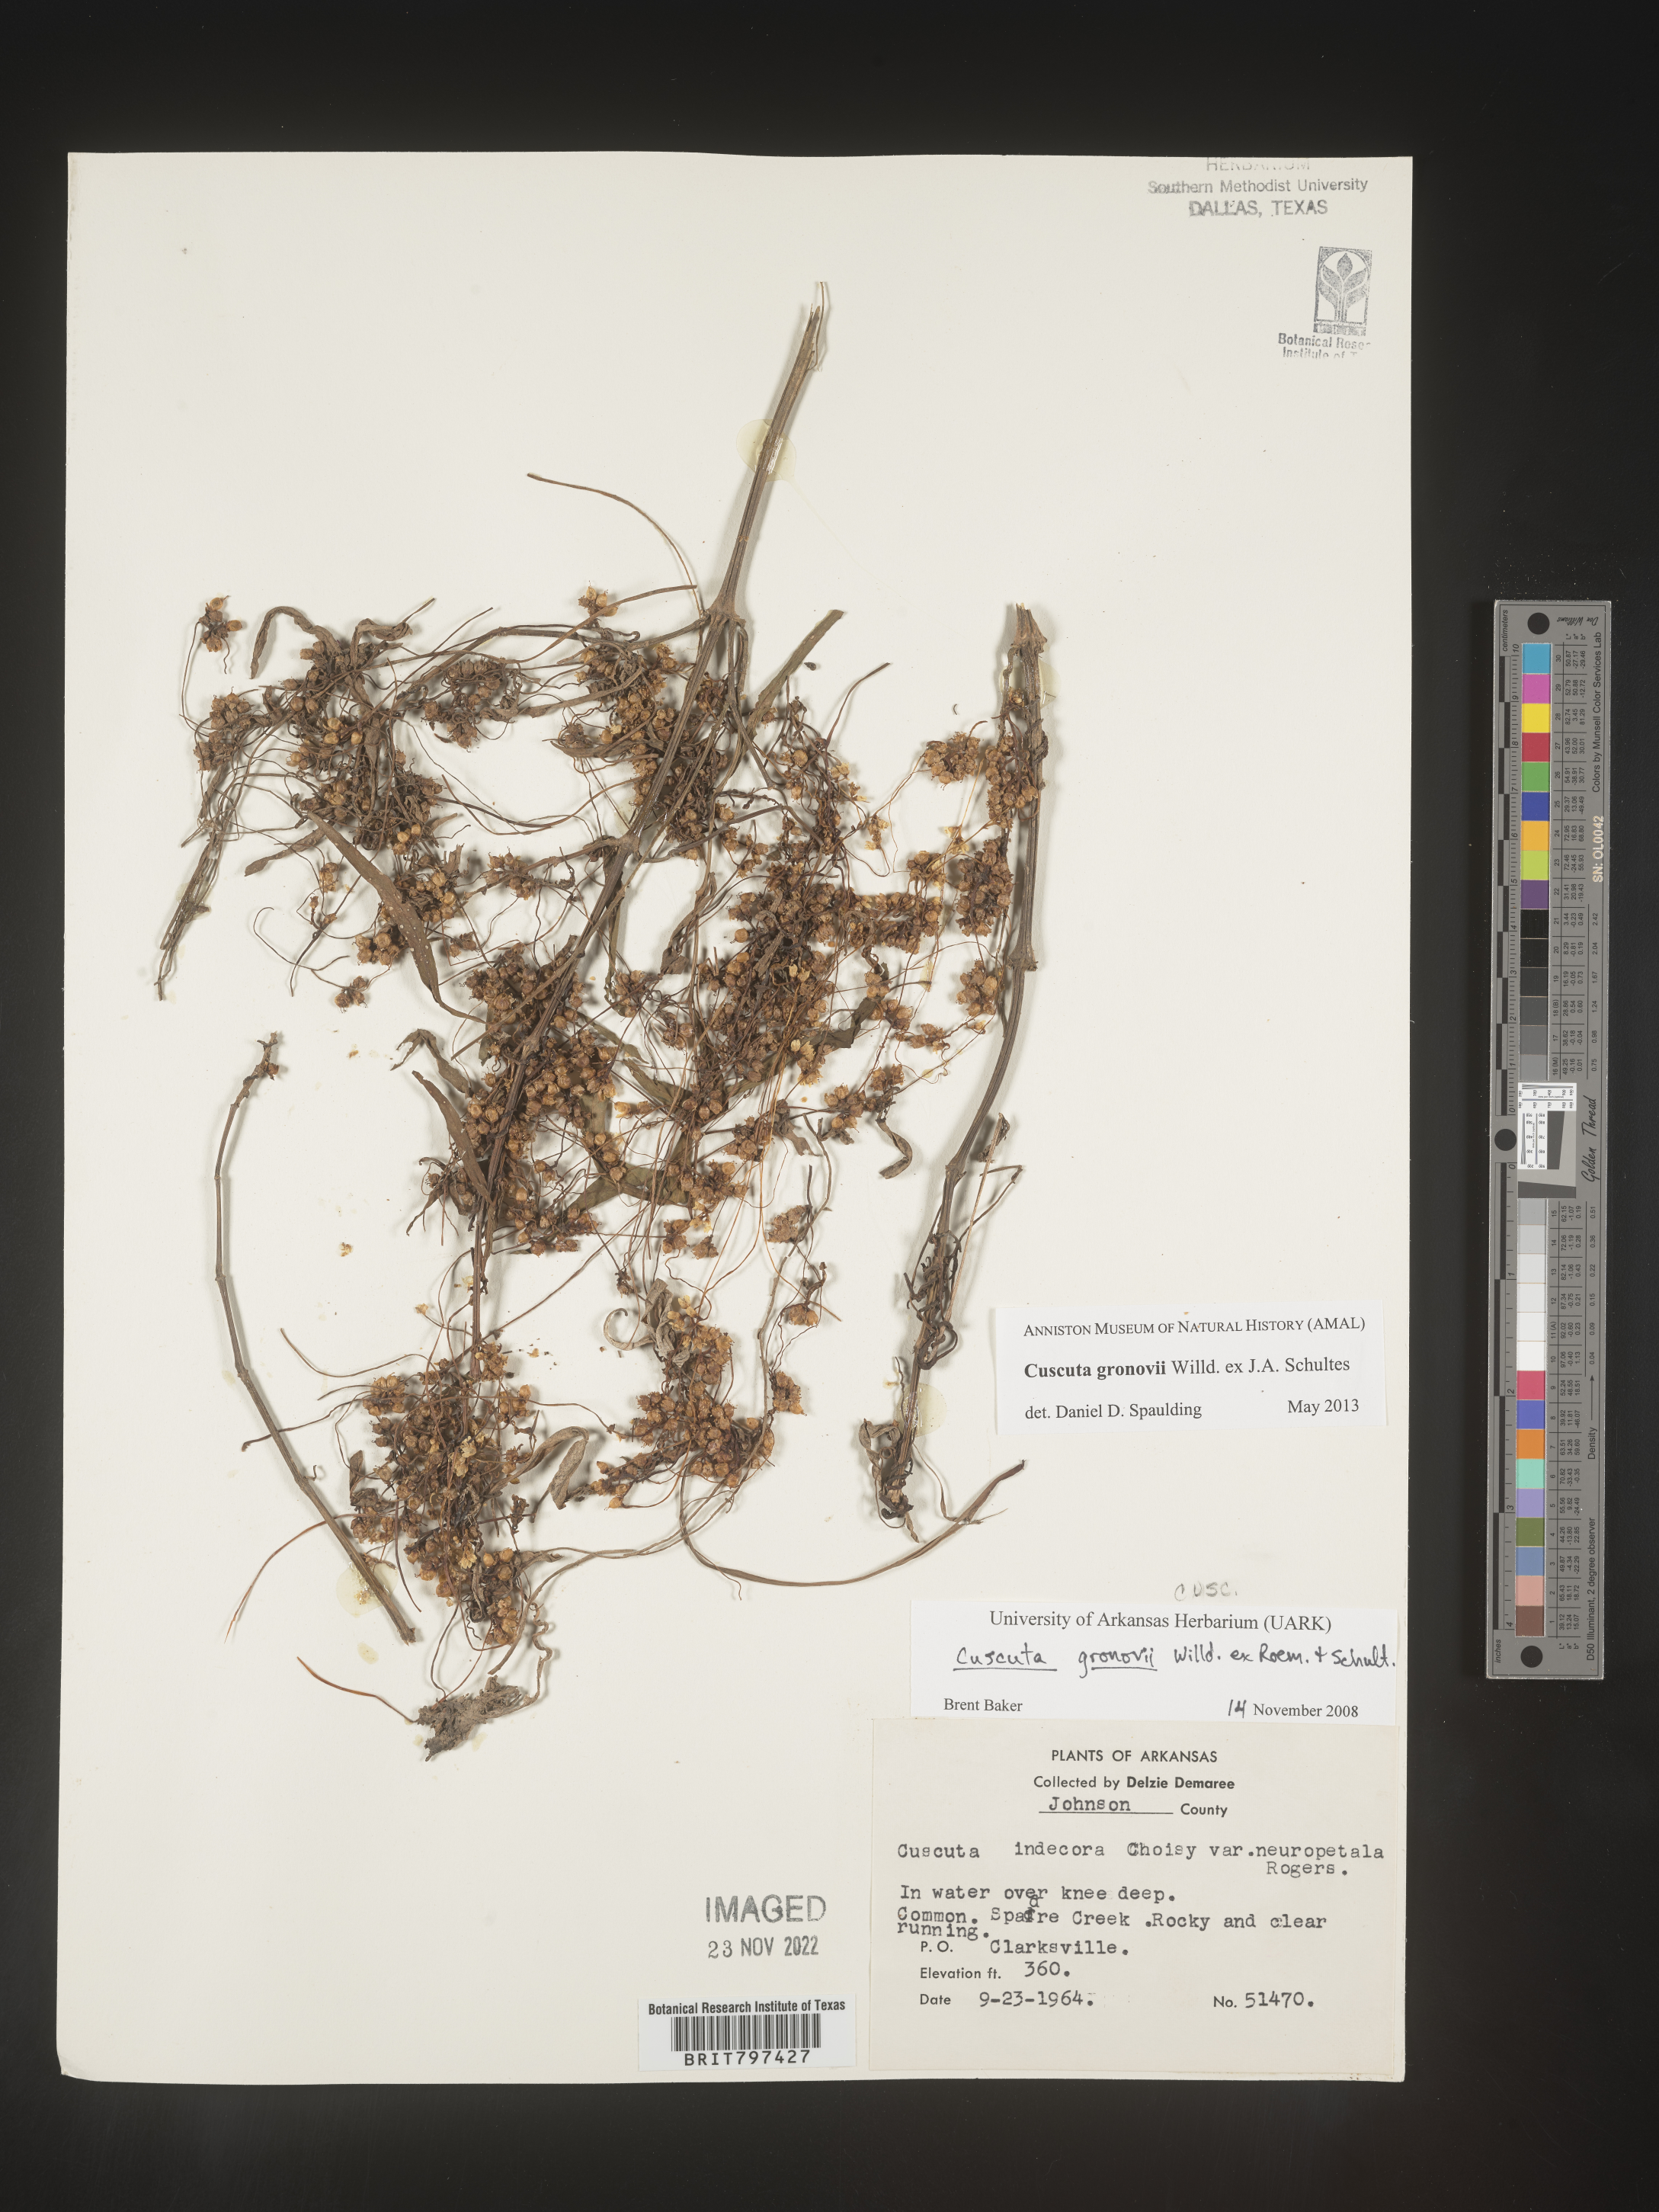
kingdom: Plantae
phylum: Tracheophyta
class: Magnoliopsida
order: Solanales
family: Convolvulaceae
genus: Cuscuta
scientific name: Cuscuta gronovii
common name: Common dodder
